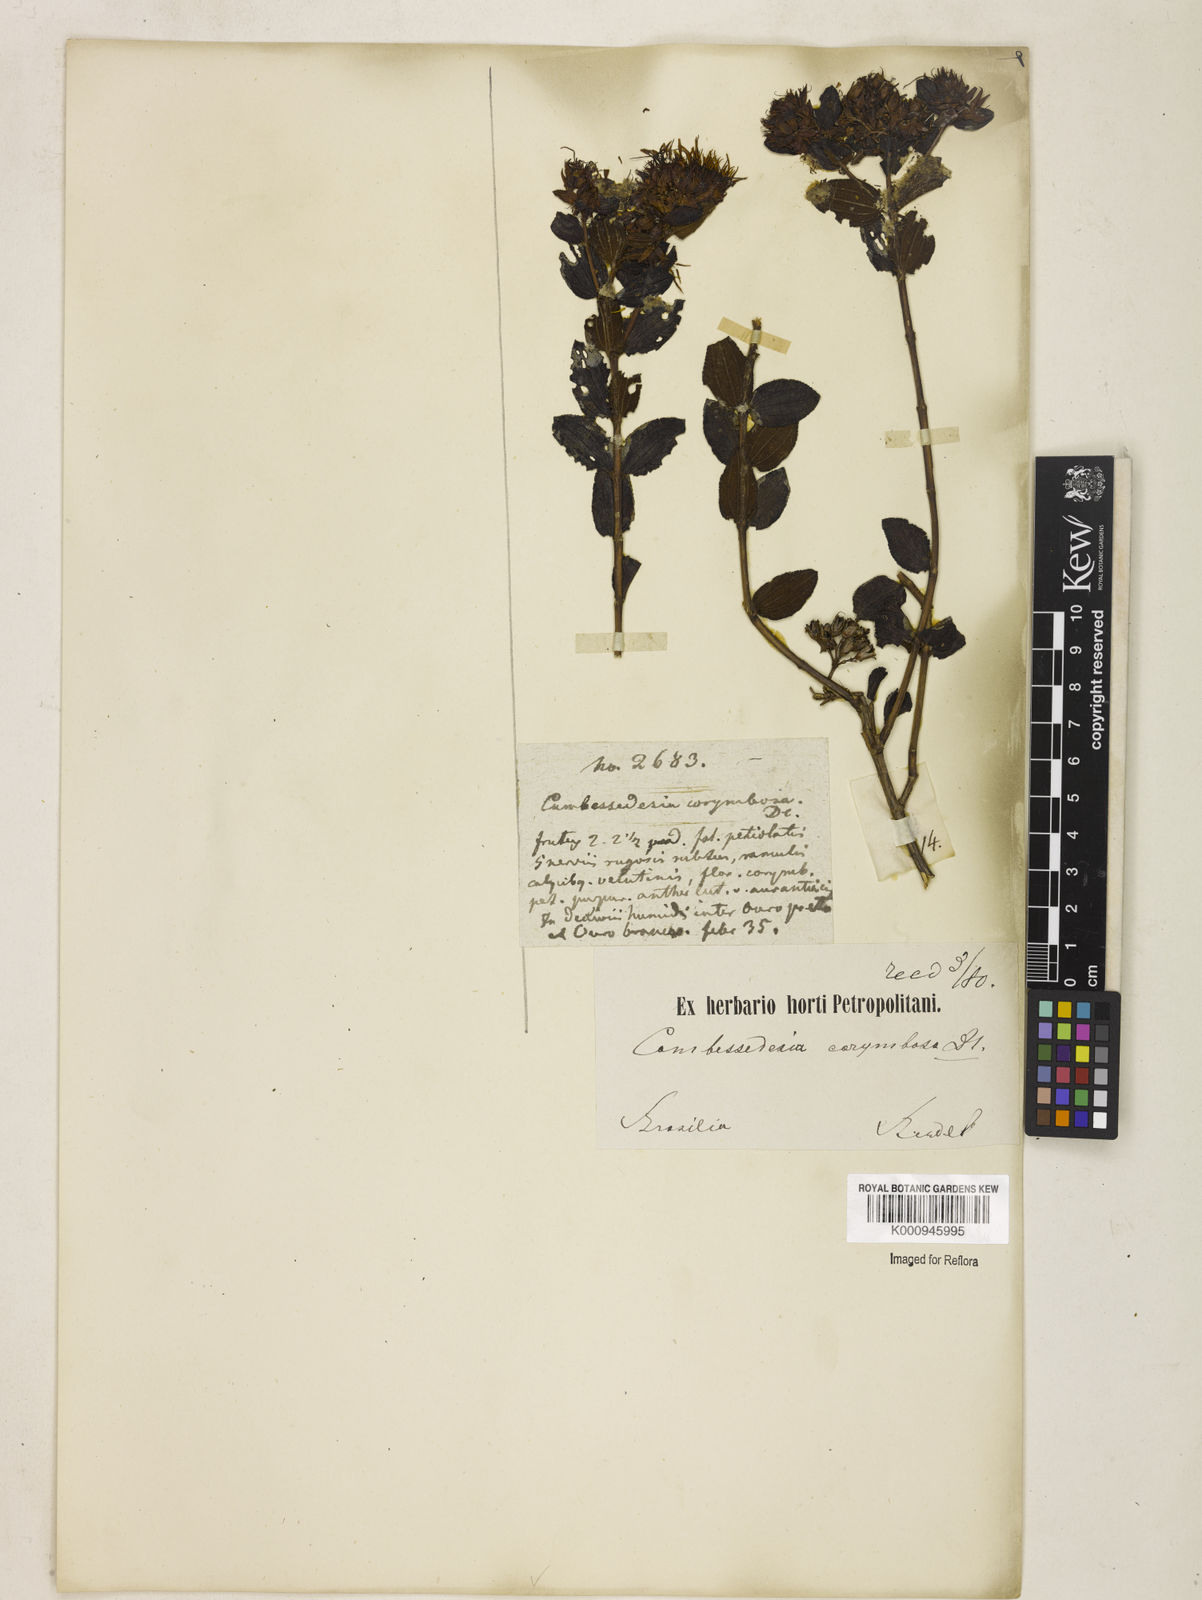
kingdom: Plantae
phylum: Tracheophyta
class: Magnoliopsida
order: Myrtales
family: Melastomataceae
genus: Cambessedesia
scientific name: Cambessedesia corymbosa
